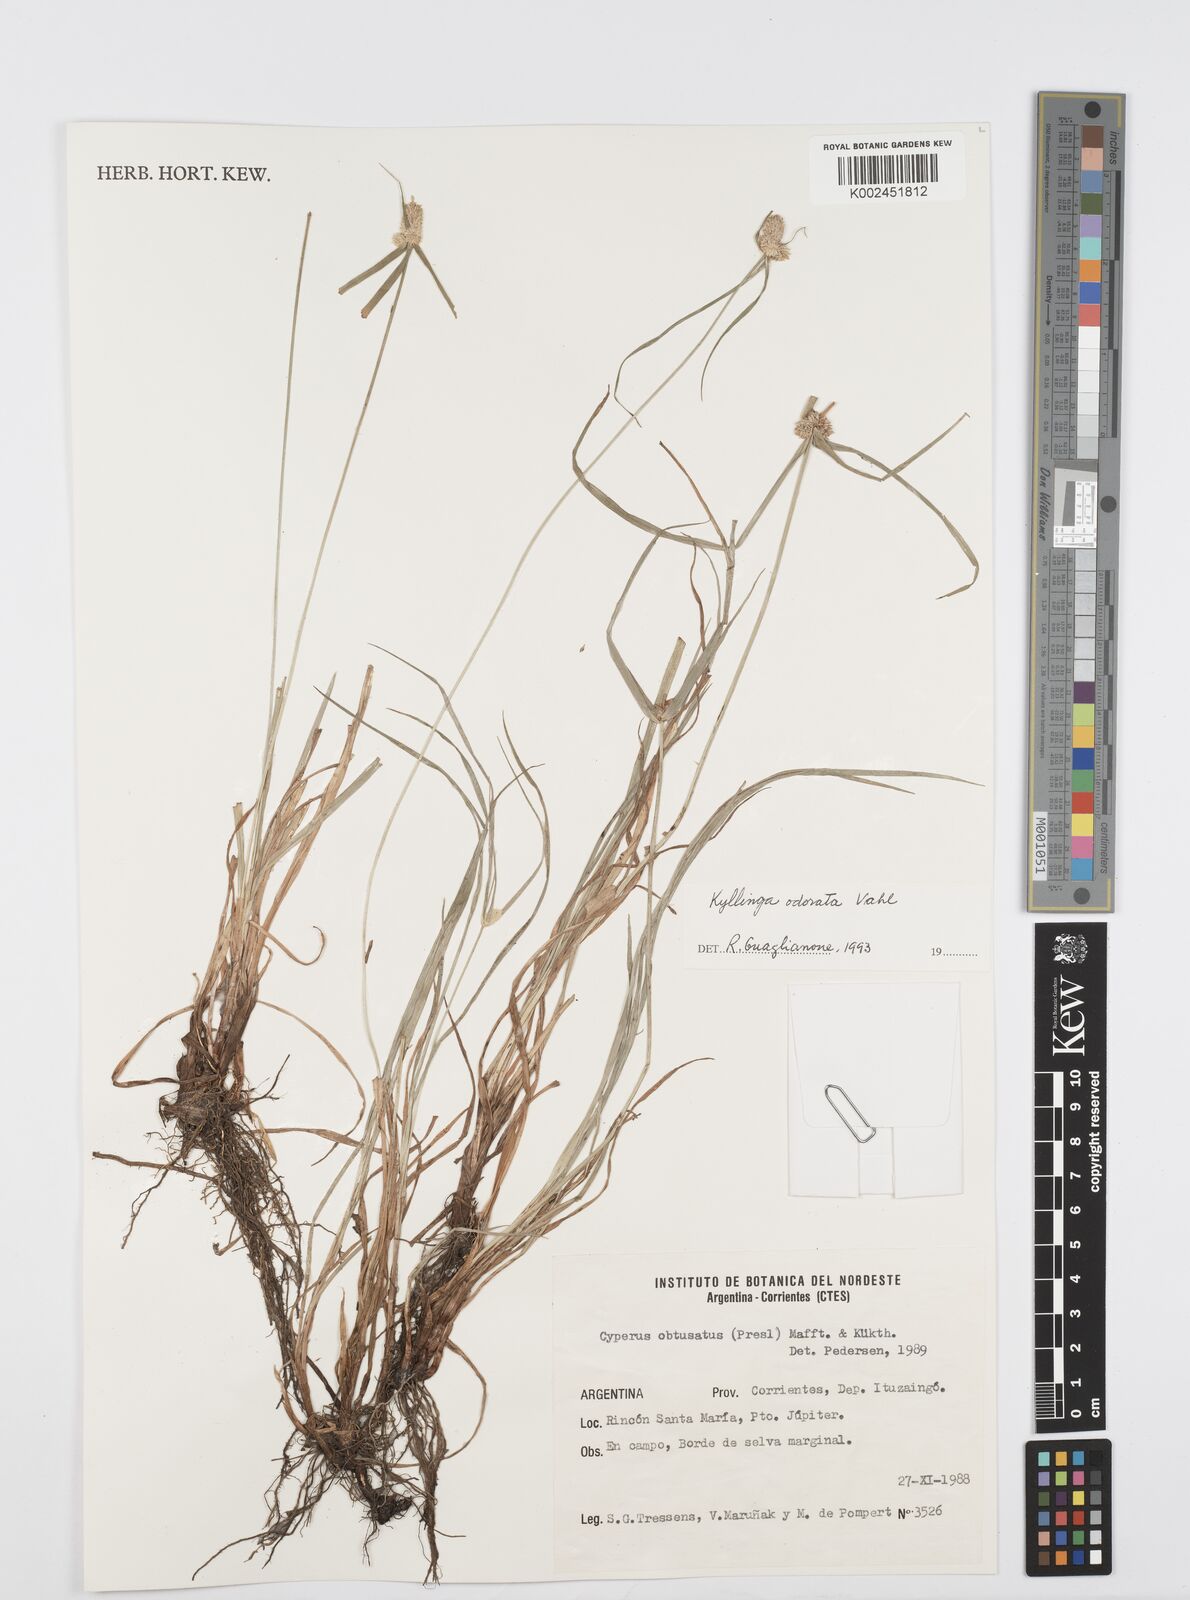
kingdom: Plantae
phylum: Tracheophyta
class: Liliopsida
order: Poales
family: Cyperaceae
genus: Cyperus
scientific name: Cyperus odoratus
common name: Fragrant flatsedge
